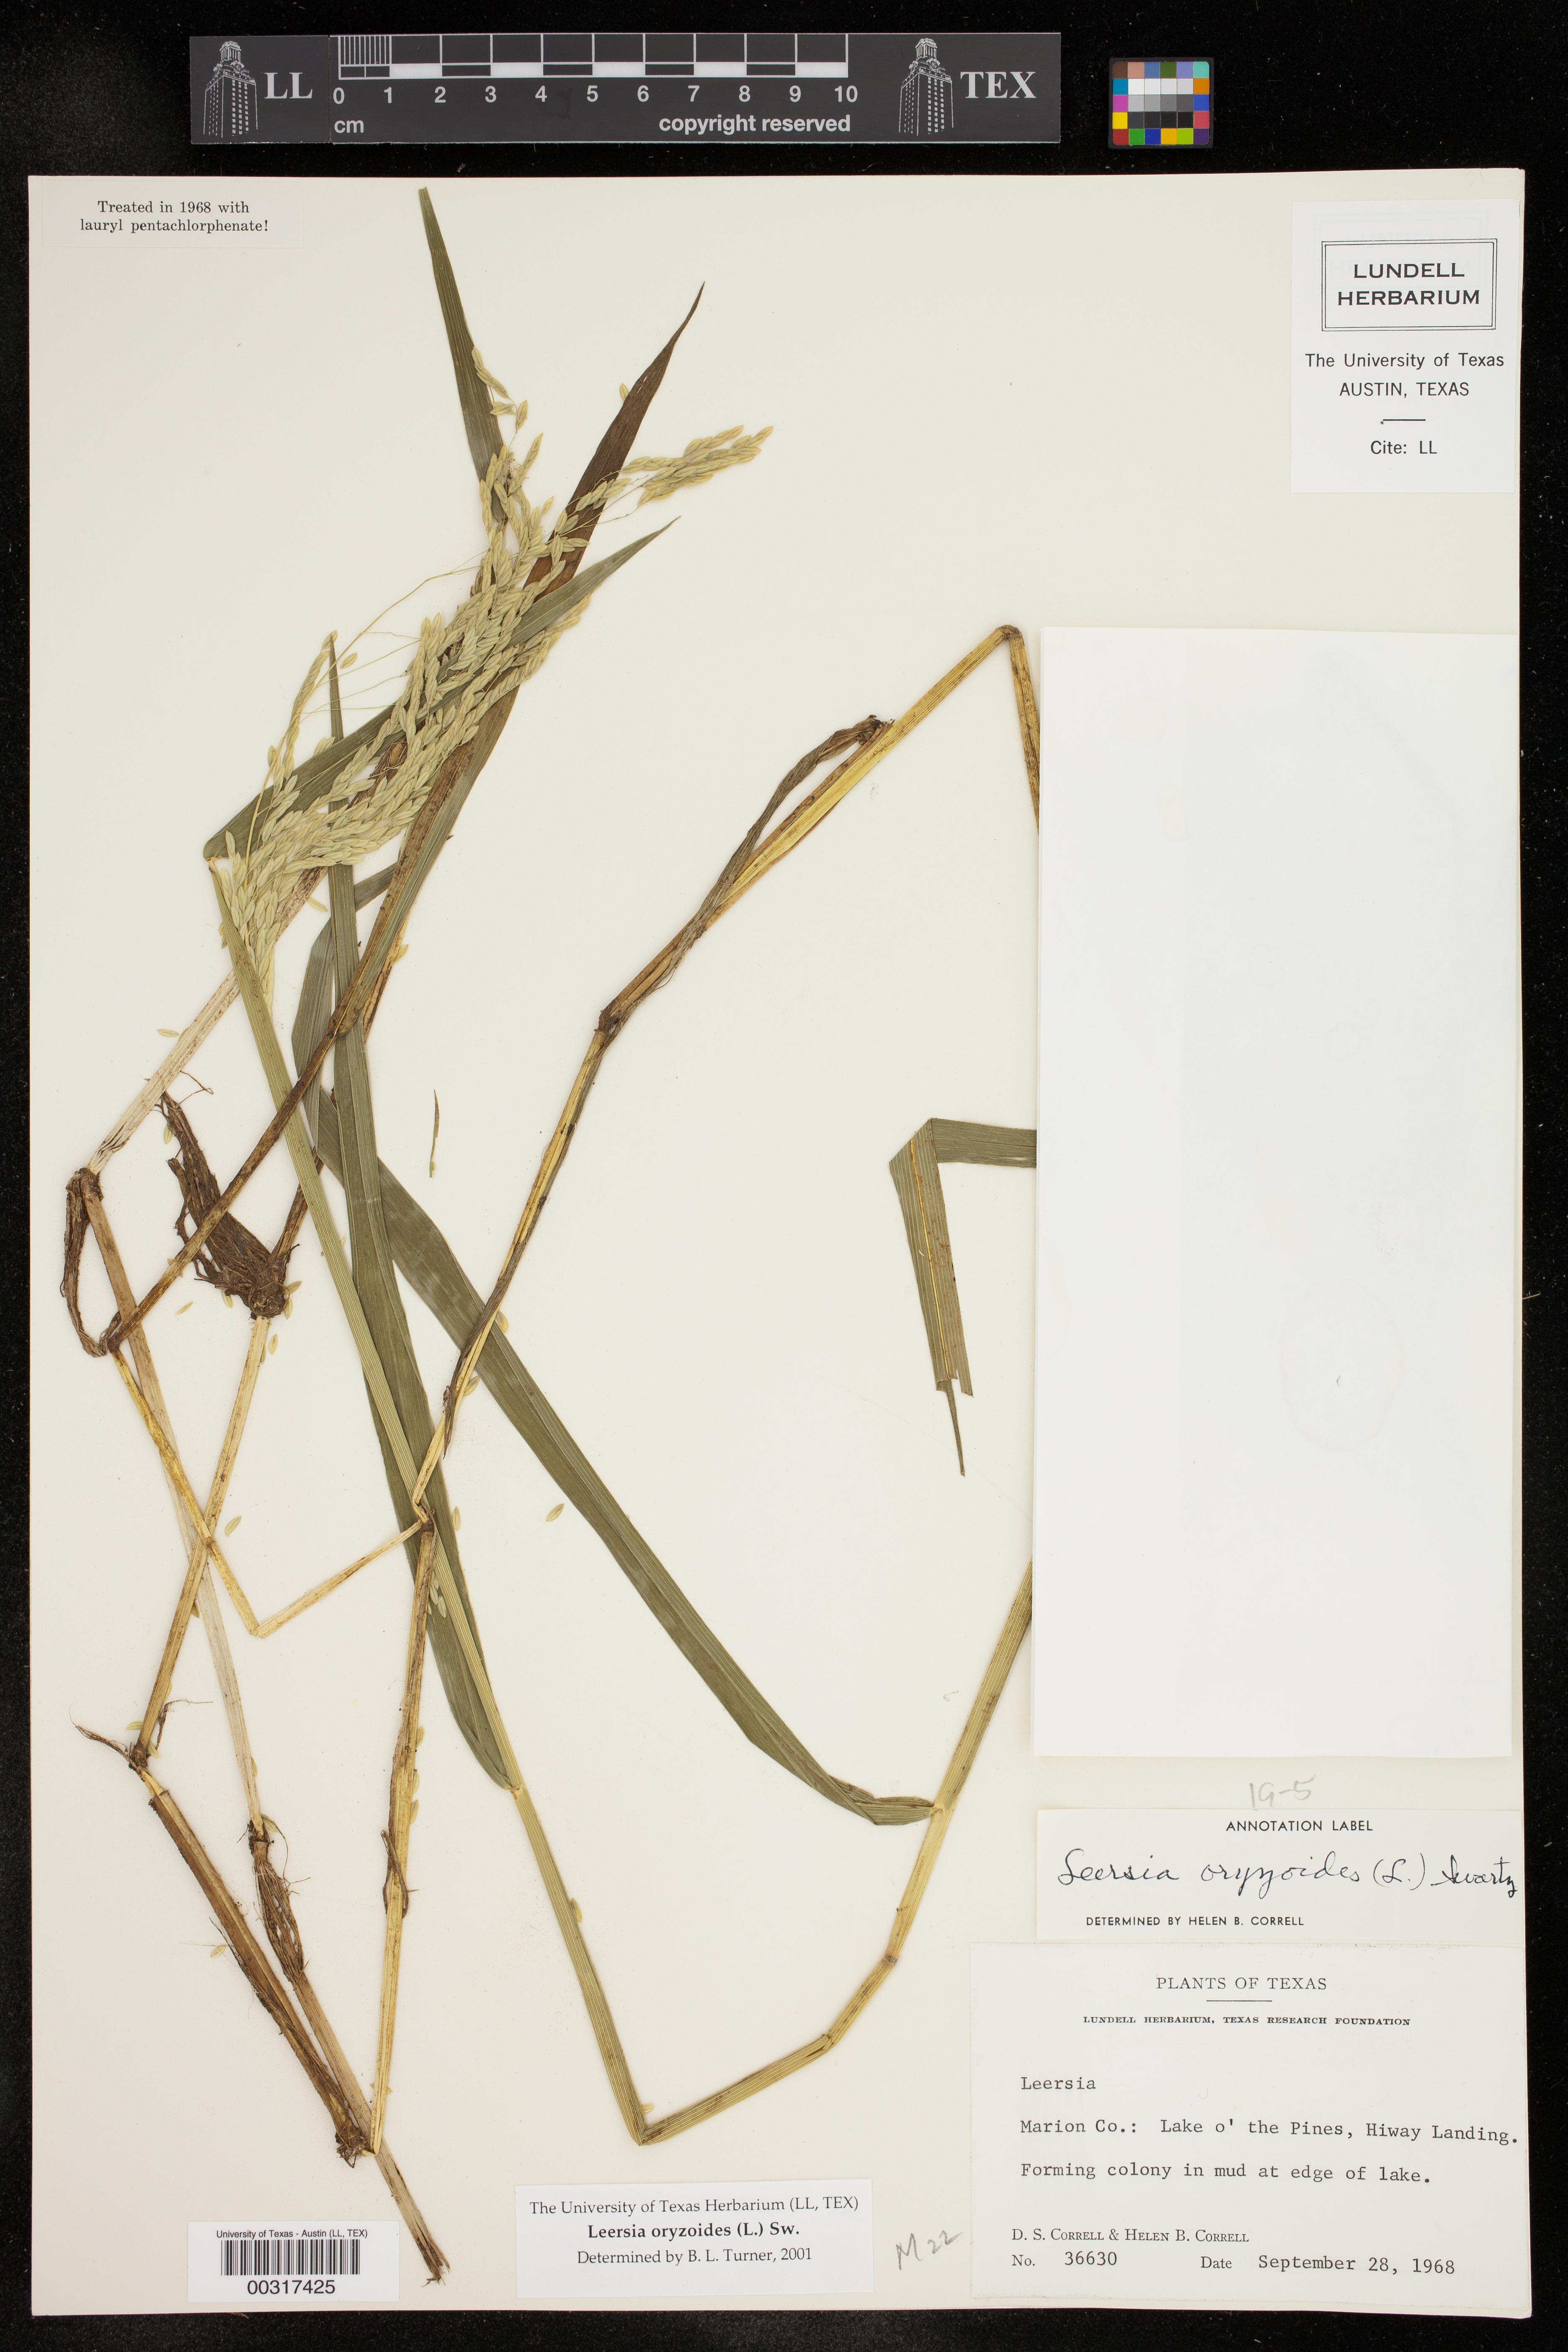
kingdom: Plantae
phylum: Tracheophyta
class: Liliopsida
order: Poales
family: Poaceae
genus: Leersia
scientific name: Leersia oryzoides
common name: Cut-grass
